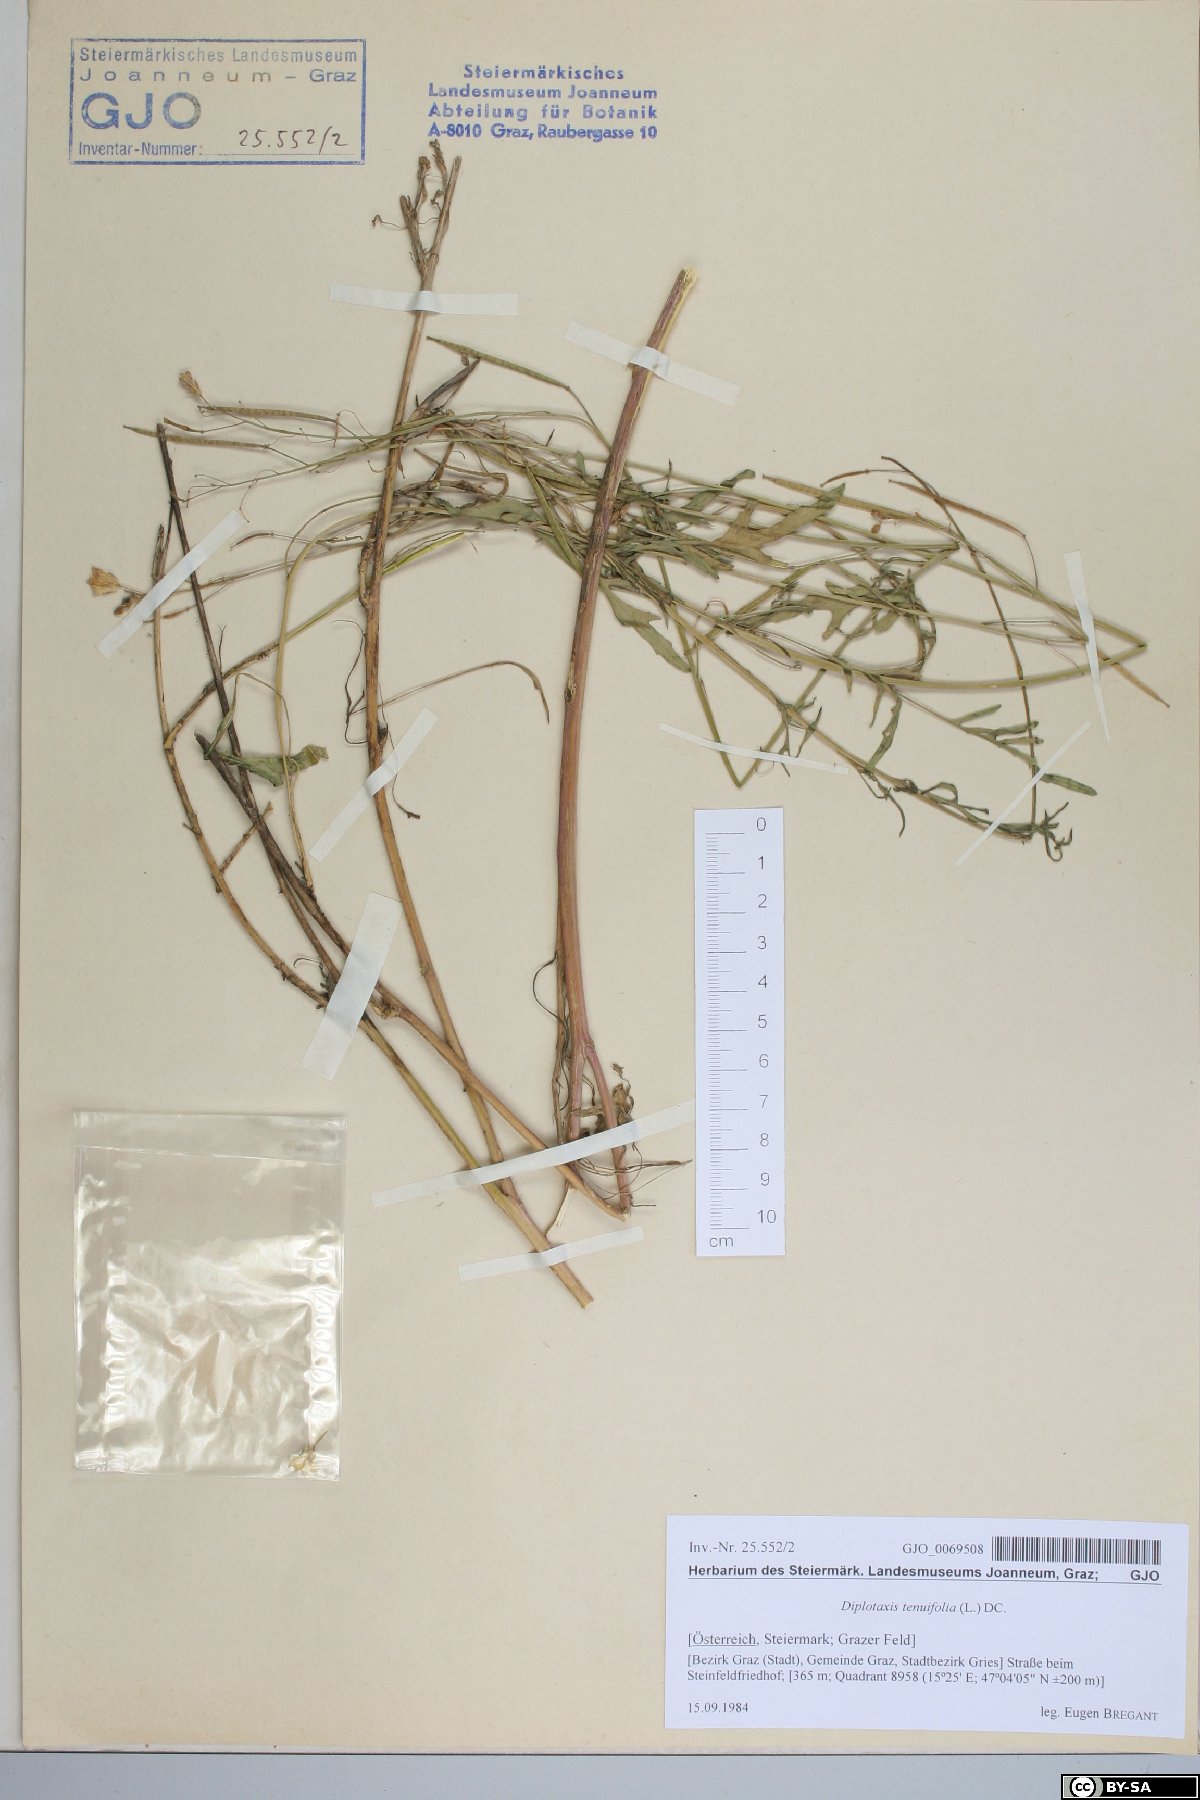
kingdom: Plantae
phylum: Tracheophyta
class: Magnoliopsida
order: Brassicales
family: Brassicaceae
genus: Diplotaxis
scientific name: Diplotaxis tenuifolia
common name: Perennial wall-rocket
